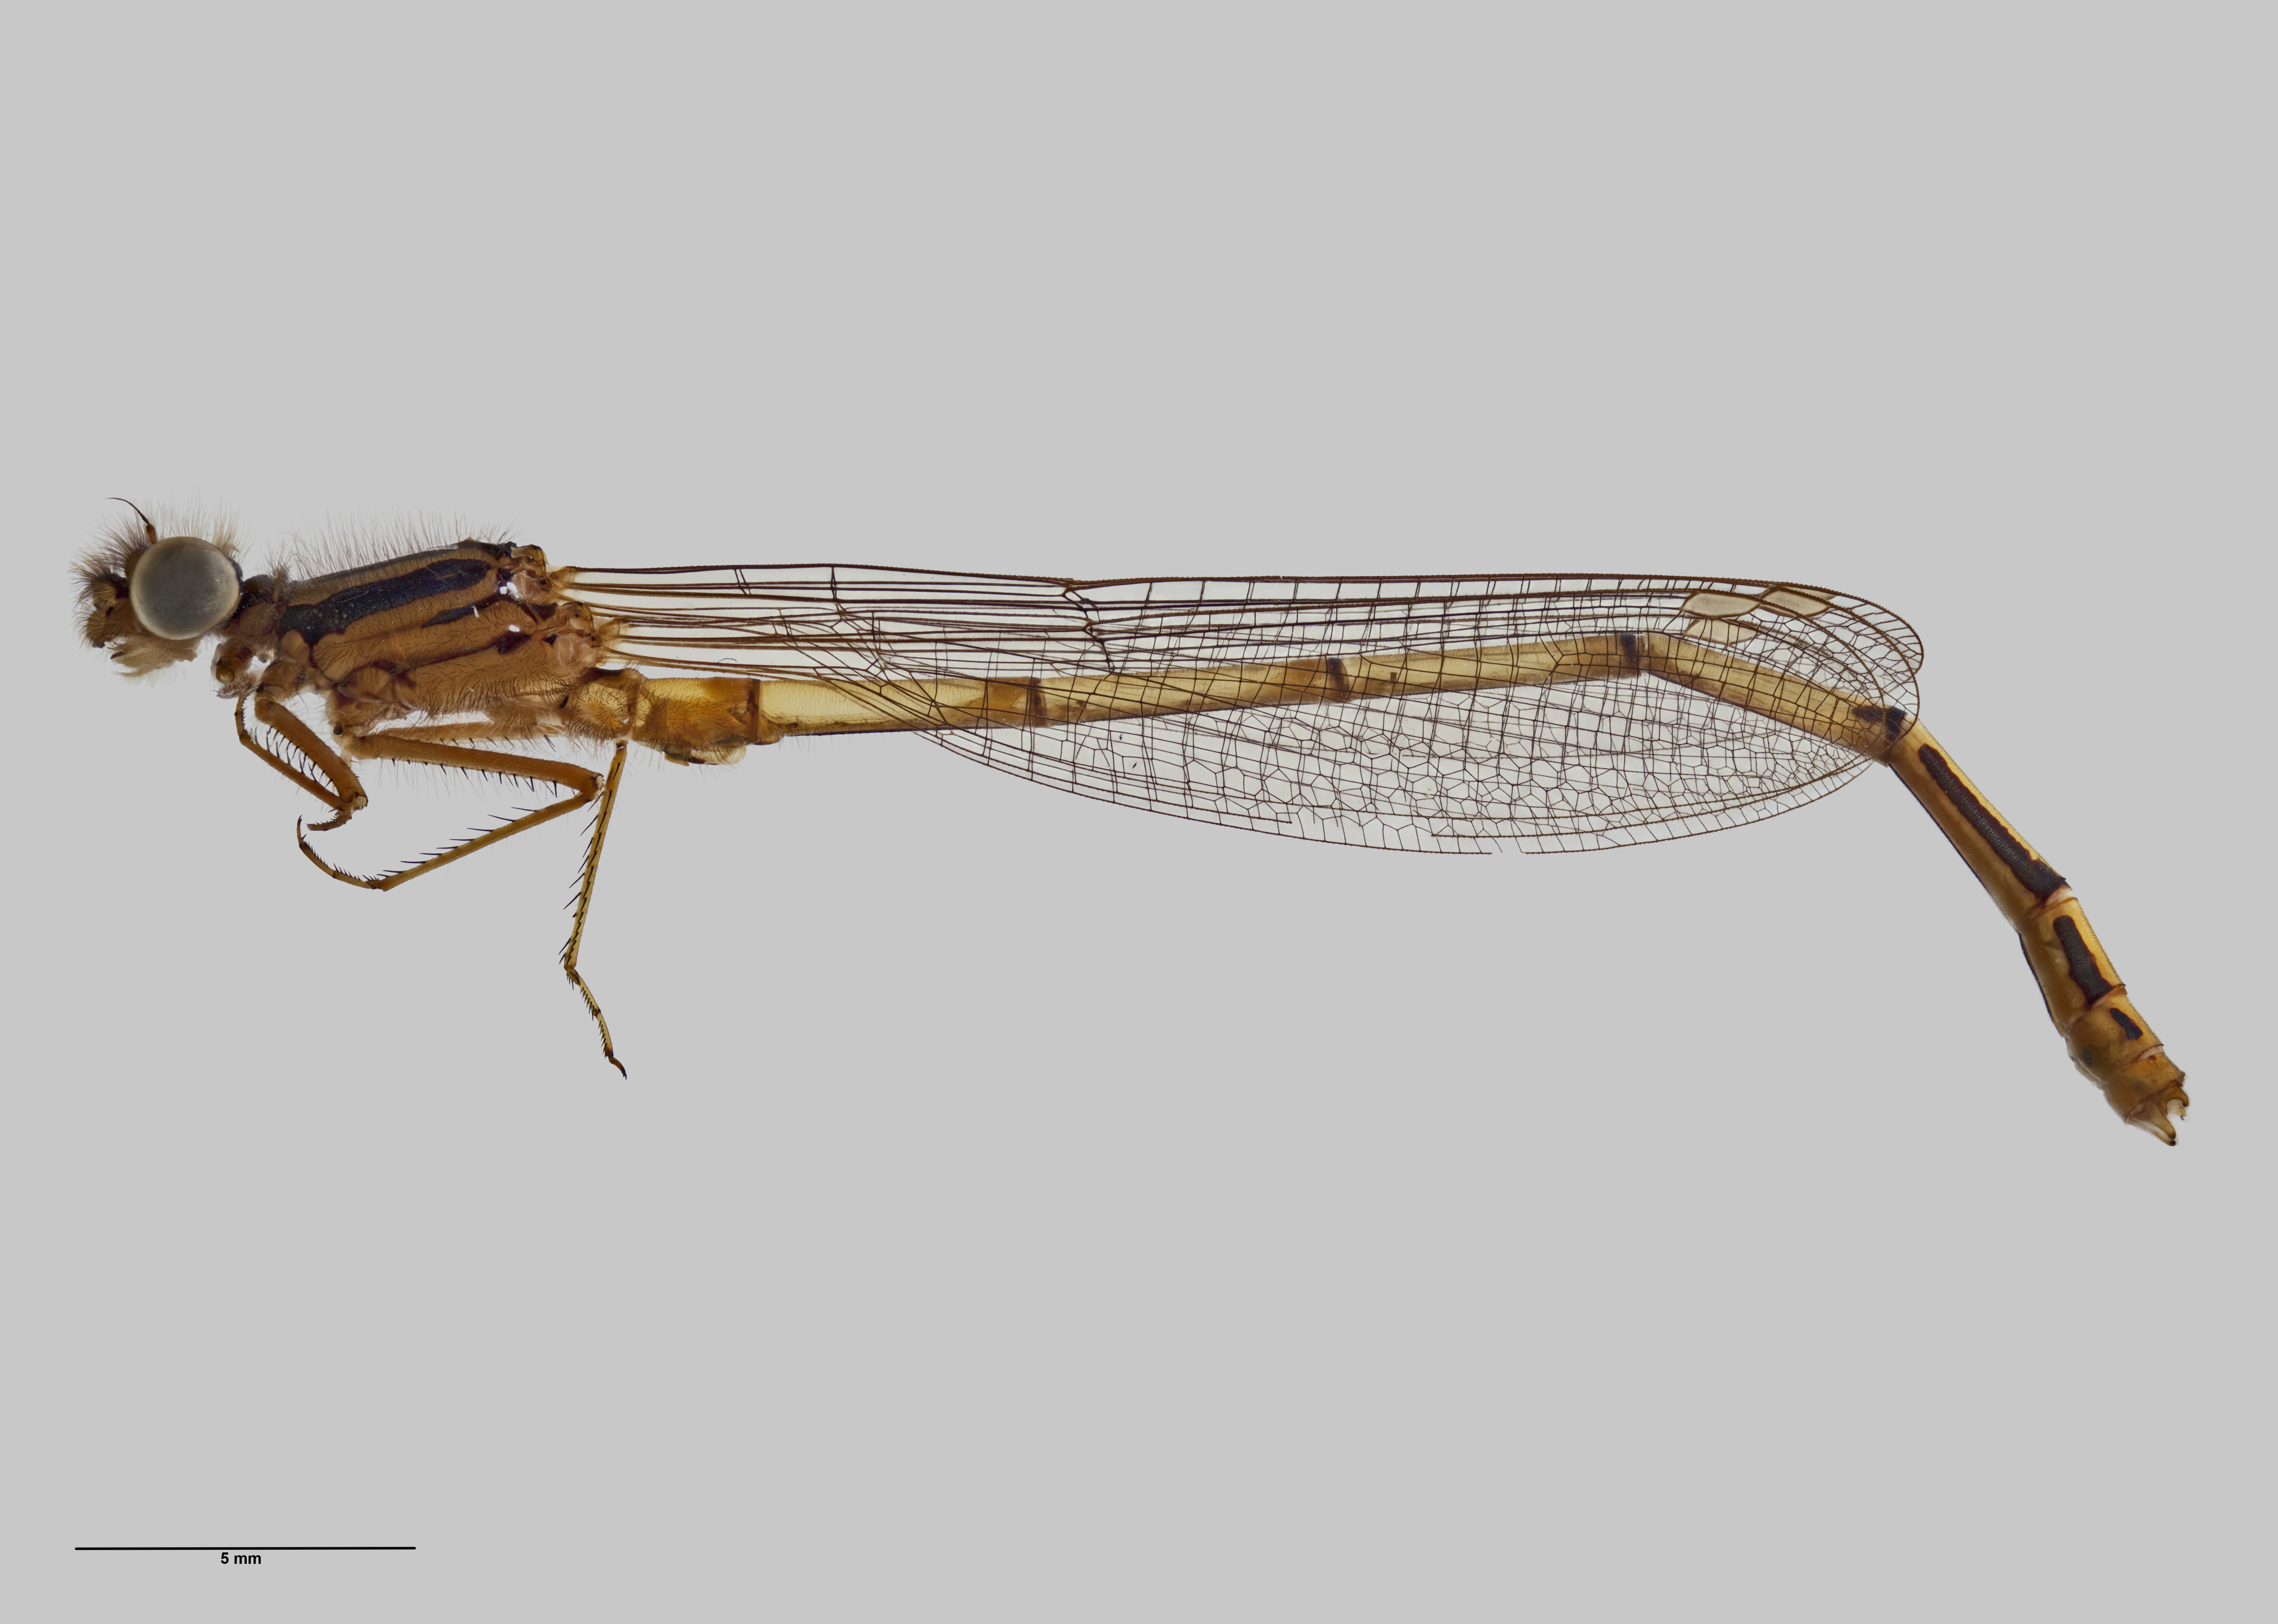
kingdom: Animalia
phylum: Arthropoda
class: Insecta
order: Odonata
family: Coenagrionidae
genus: Xanthocnemis
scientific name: Xanthocnemis tuanuii
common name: Chatham redcoat damselfly
